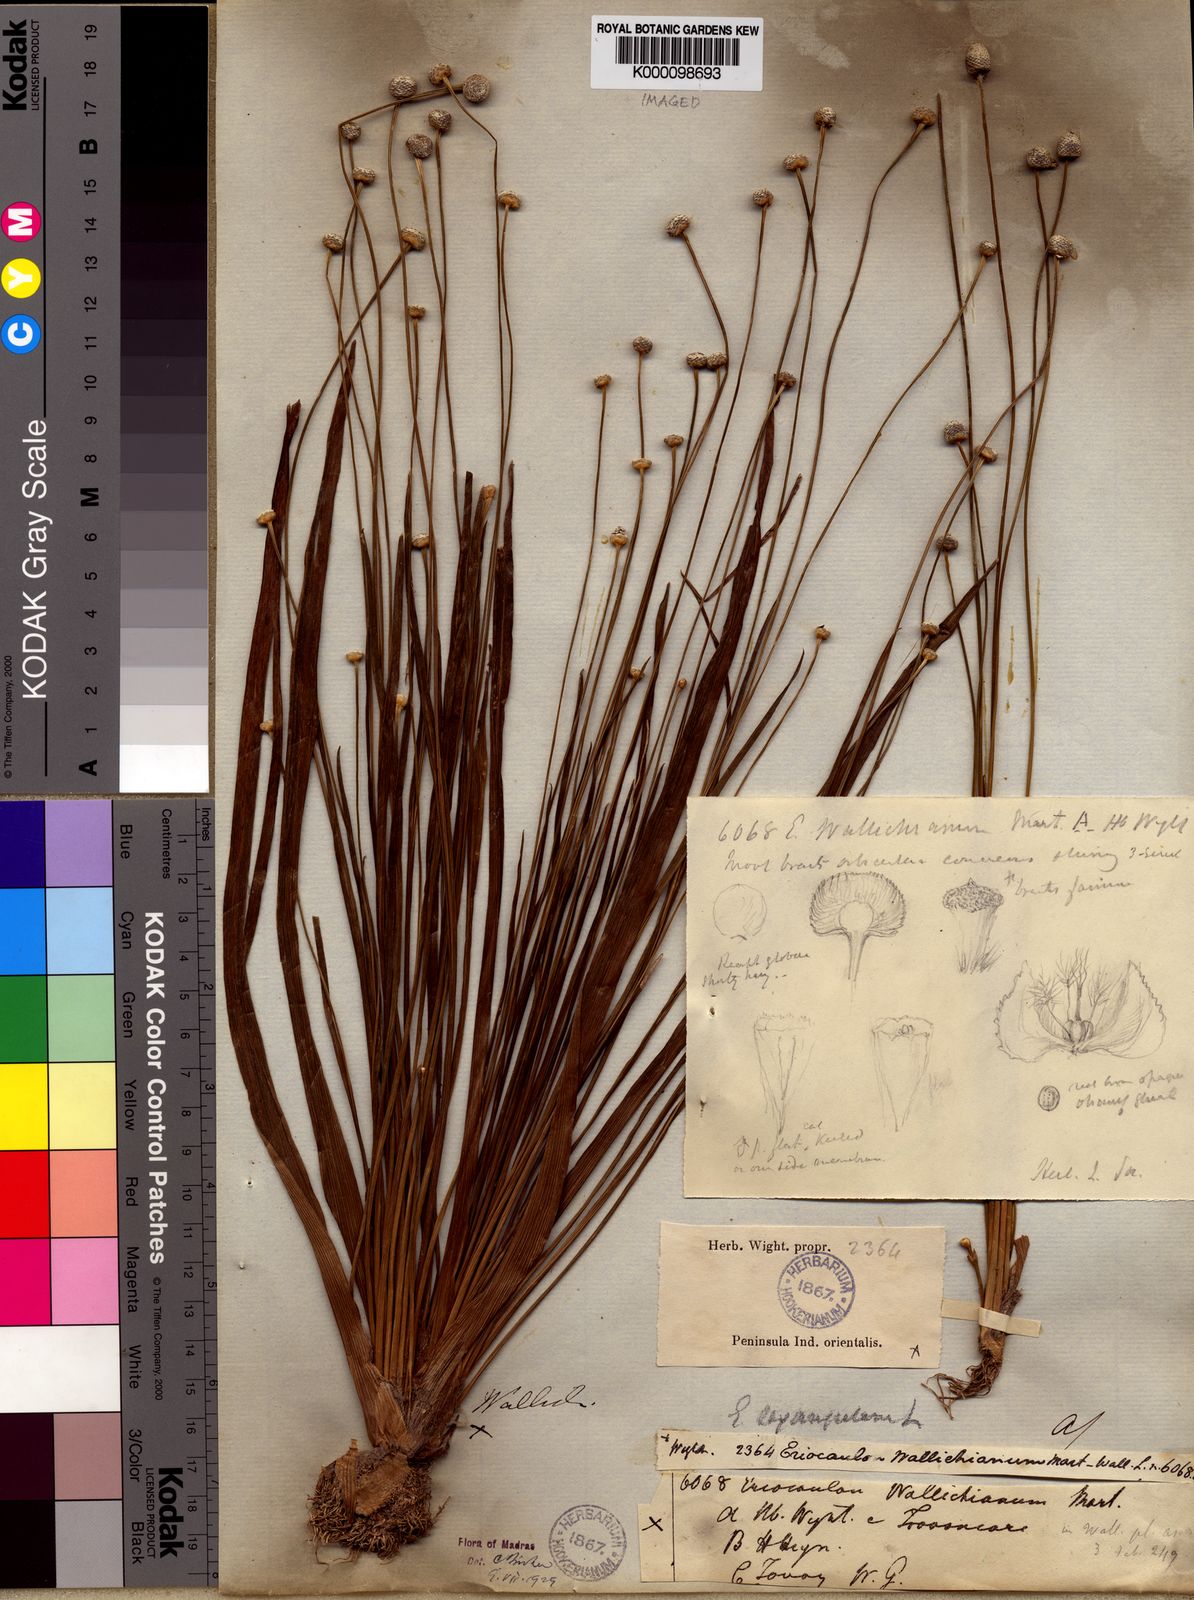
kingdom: Plantae
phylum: Tracheophyta
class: Liliopsida
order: Poales
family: Eriocaulaceae
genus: Eriocaulon
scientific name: Eriocaulon sexangulare
